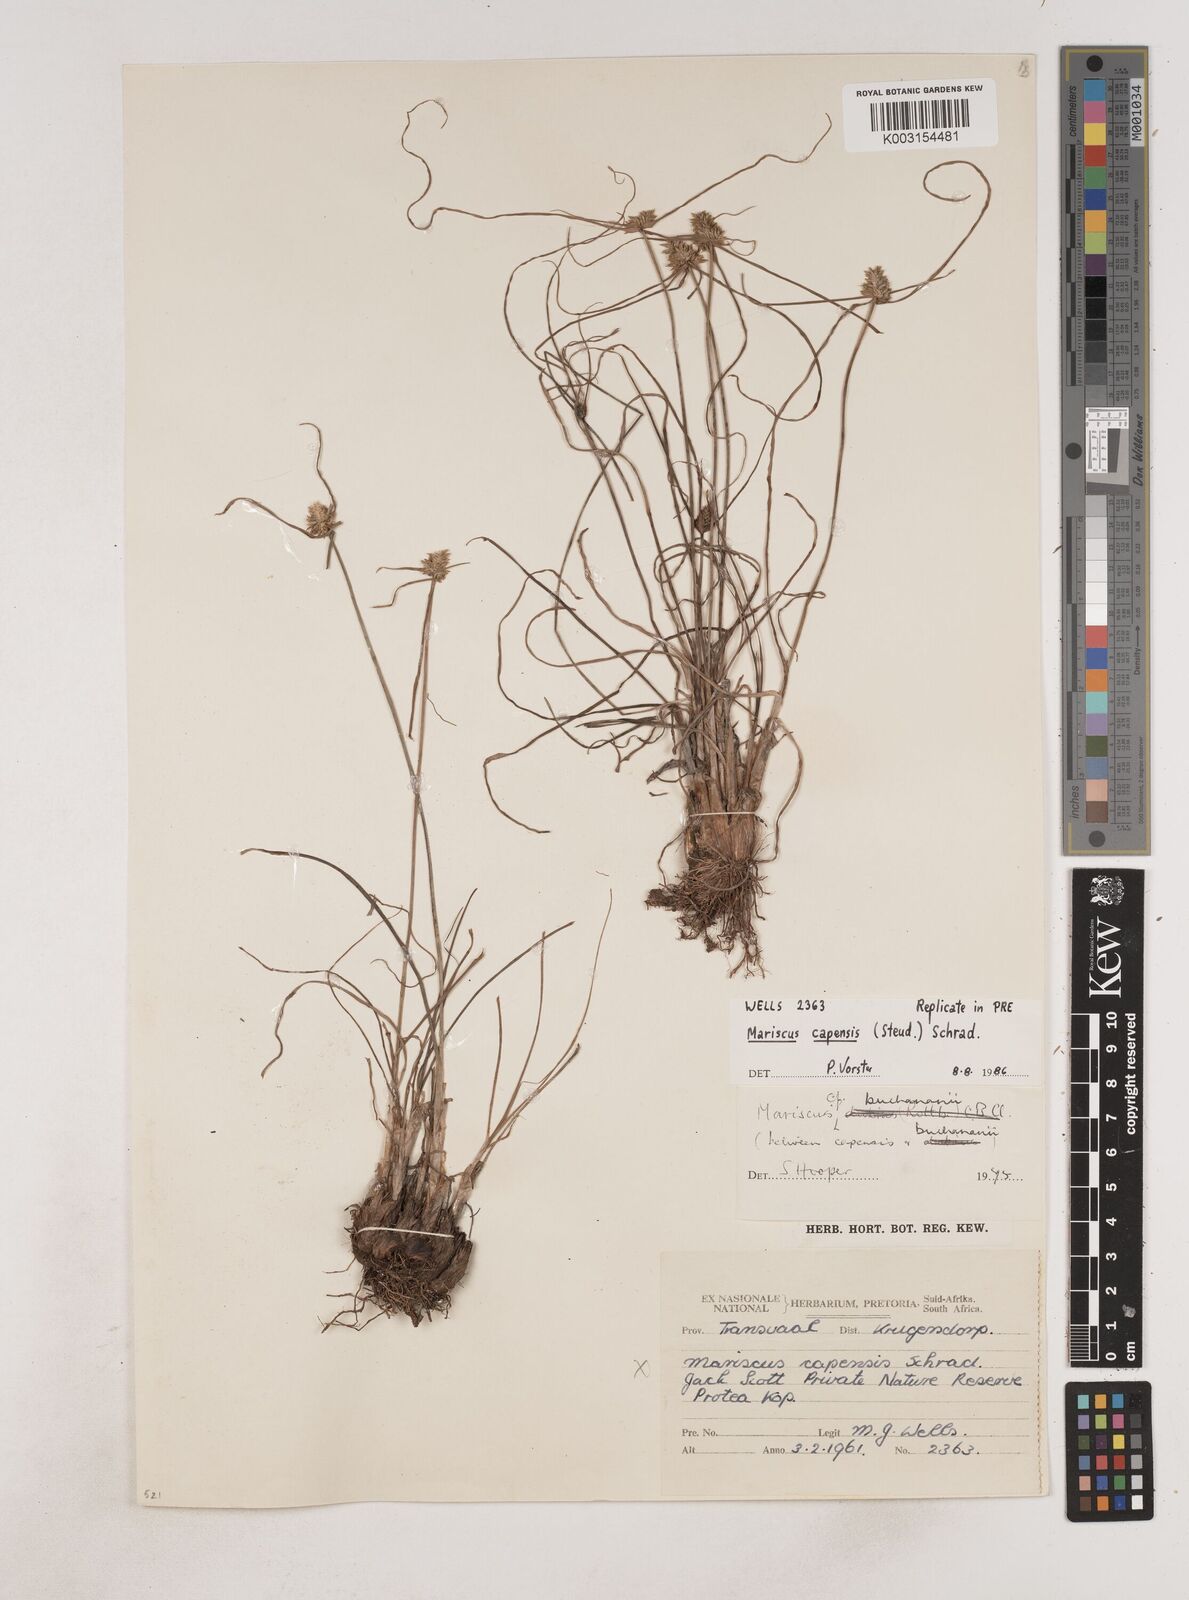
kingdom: Plantae
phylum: Tracheophyta
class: Liliopsida
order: Poales
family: Cyperaceae
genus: Cyperus
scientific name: Cyperus capensis
